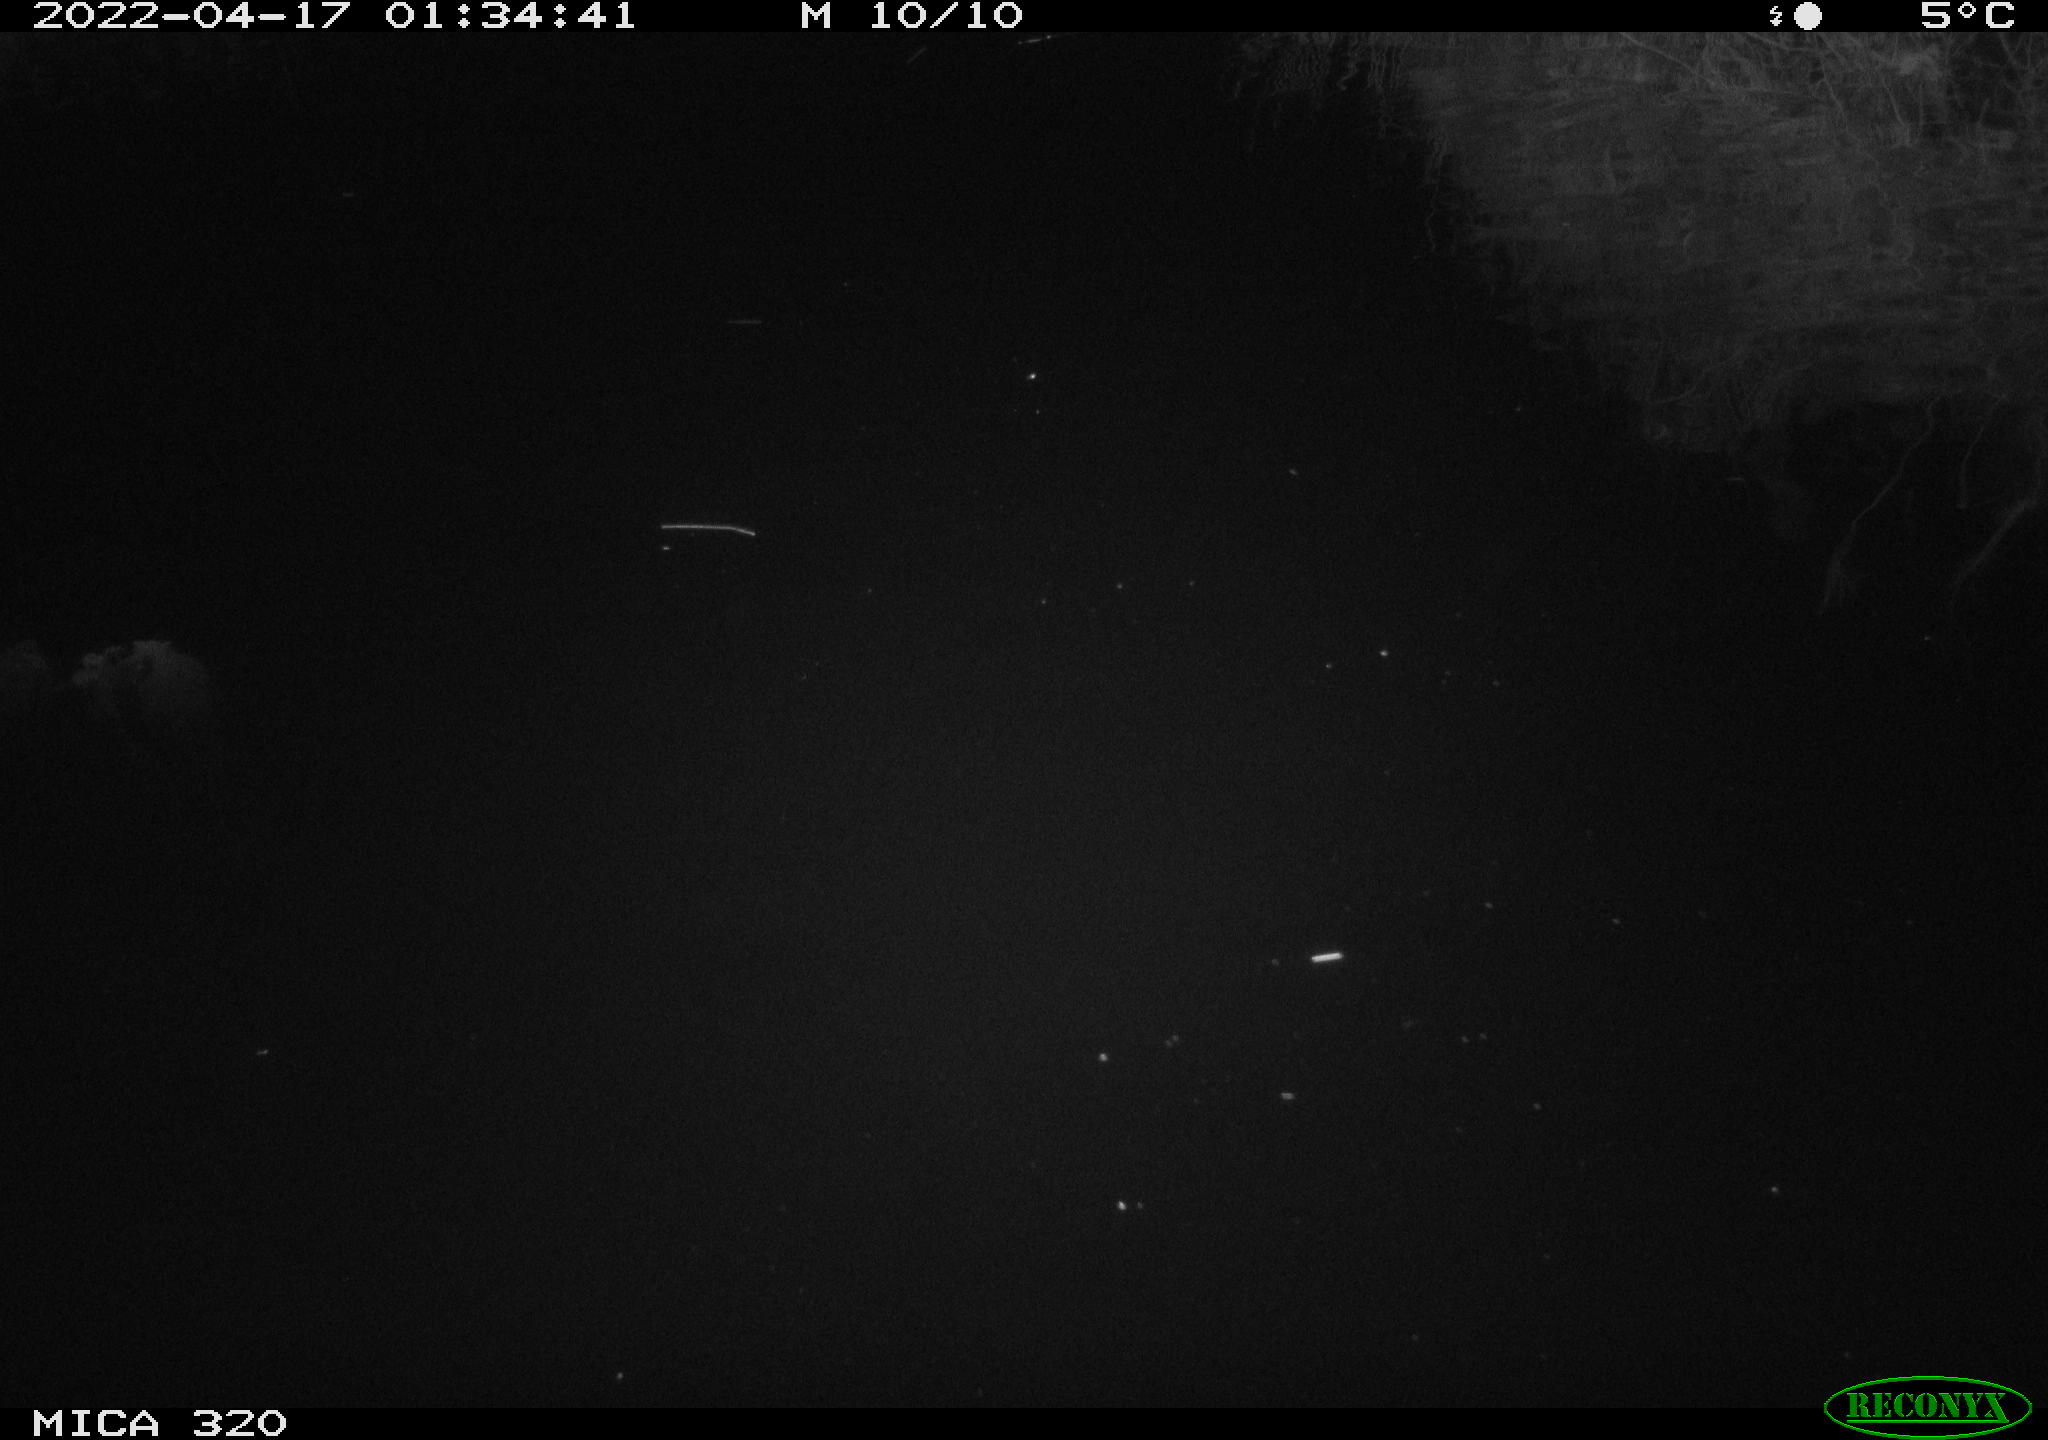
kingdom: Animalia
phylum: Chordata
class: Aves
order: Anseriformes
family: Anatidae
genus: Anas
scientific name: Anas platyrhynchos
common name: Mallard
